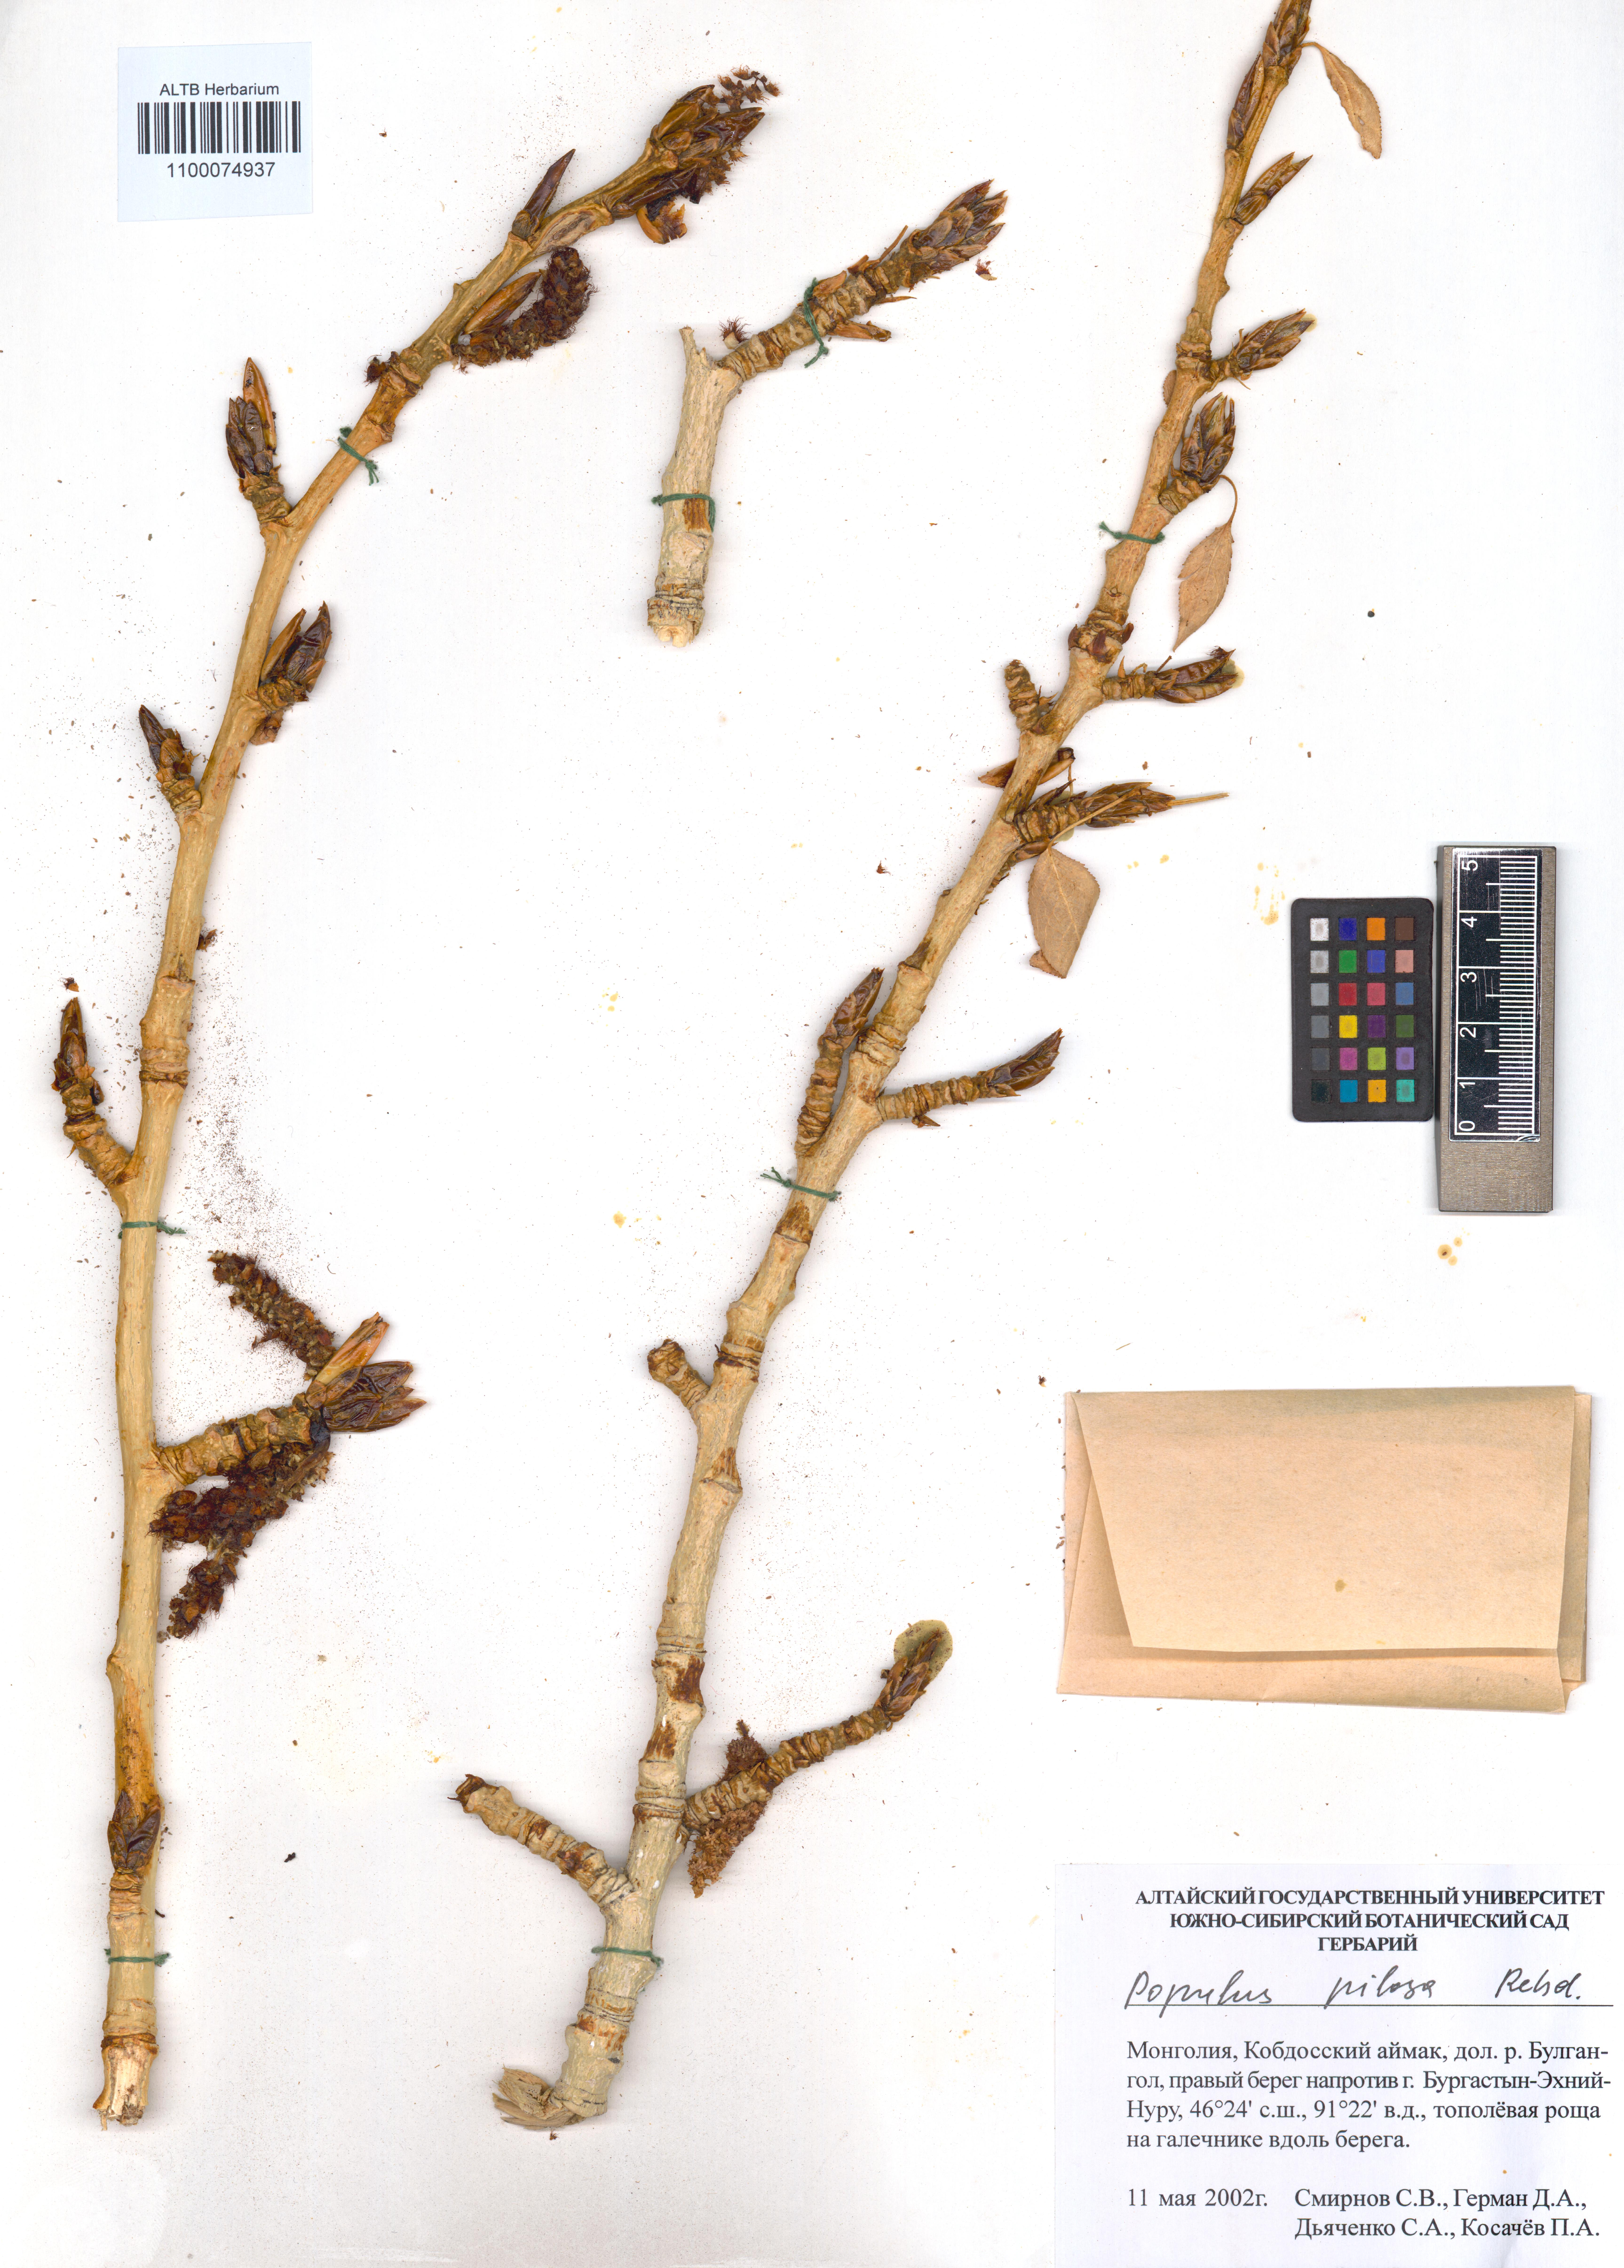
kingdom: Plantae
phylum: Tracheophyta
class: Magnoliopsida
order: Malpighiales
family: Salicaceae
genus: Populus
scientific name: Populus laurifolia
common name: Laurel-leaf poplar
